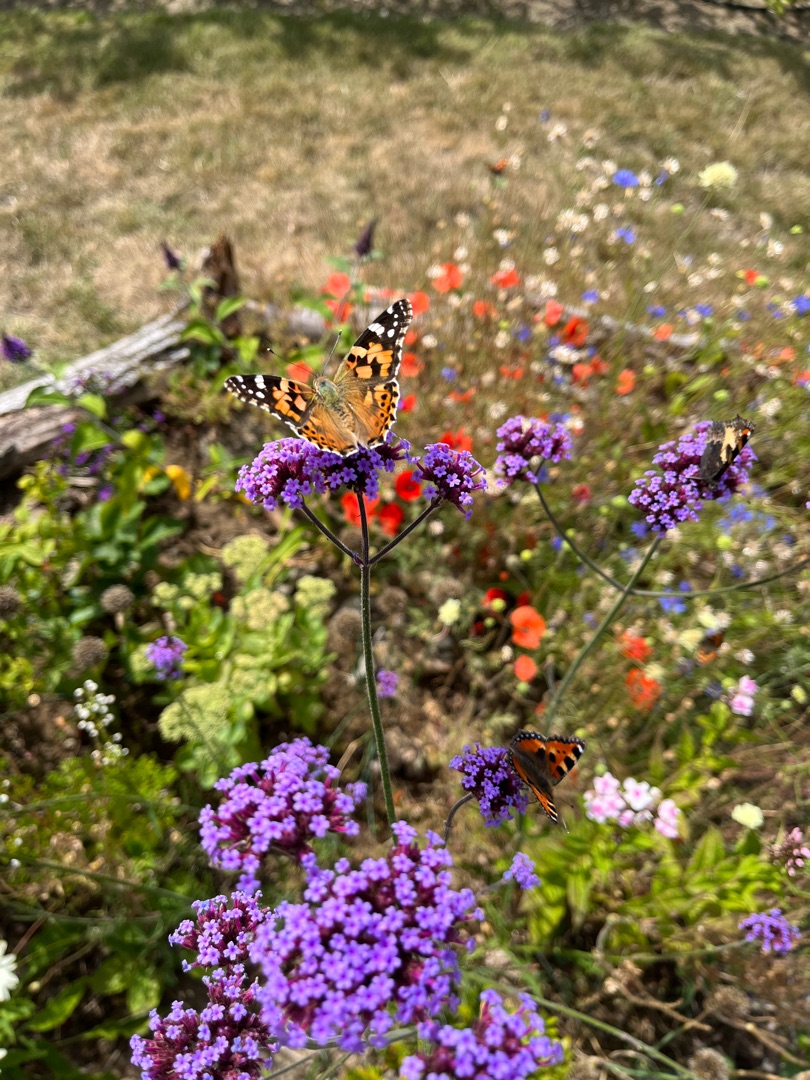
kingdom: Animalia
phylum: Arthropoda
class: Insecta
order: Lepidoptera
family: Nymphalidae
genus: Vanessa
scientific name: Vanessa cardui
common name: Tidselsommerfugl
